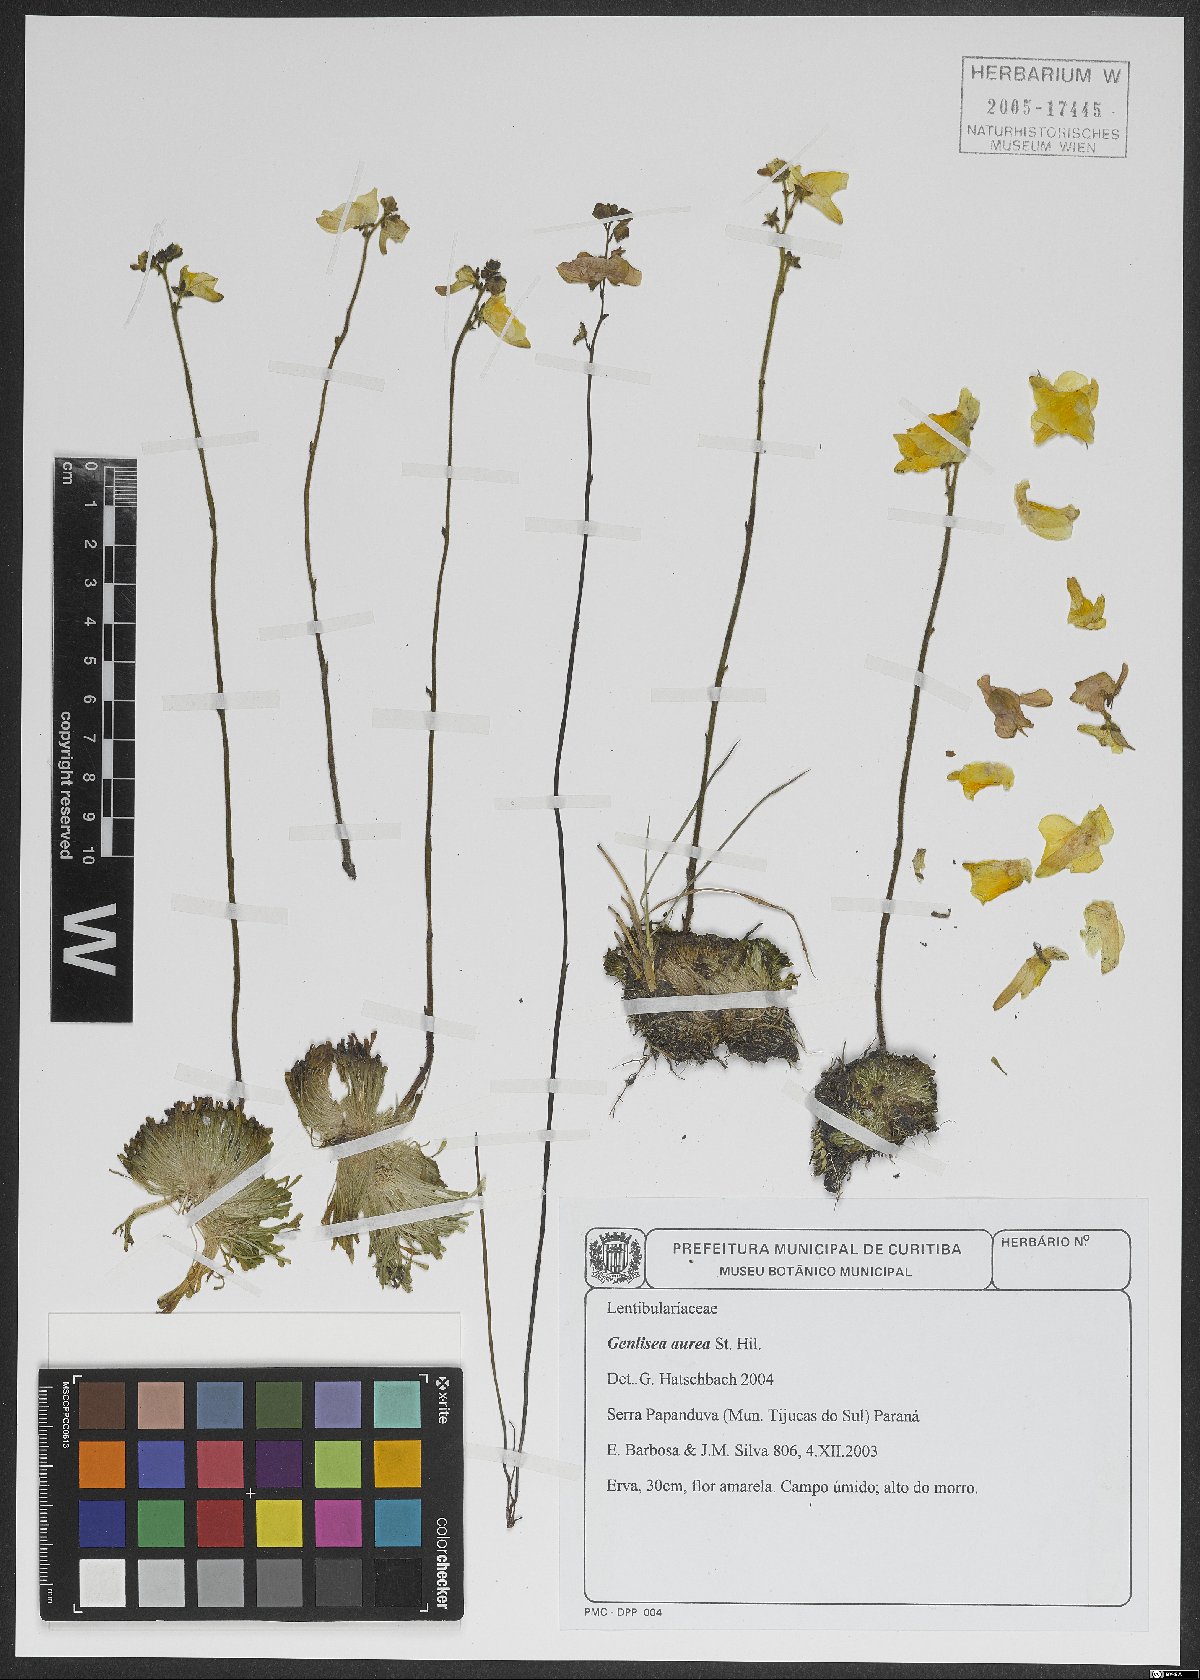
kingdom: Plantae
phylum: Tracheophyta
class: Magnoliopsida
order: Lamiales
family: Lentibulariaceae
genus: Genlisea
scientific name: Genlisea aurea
